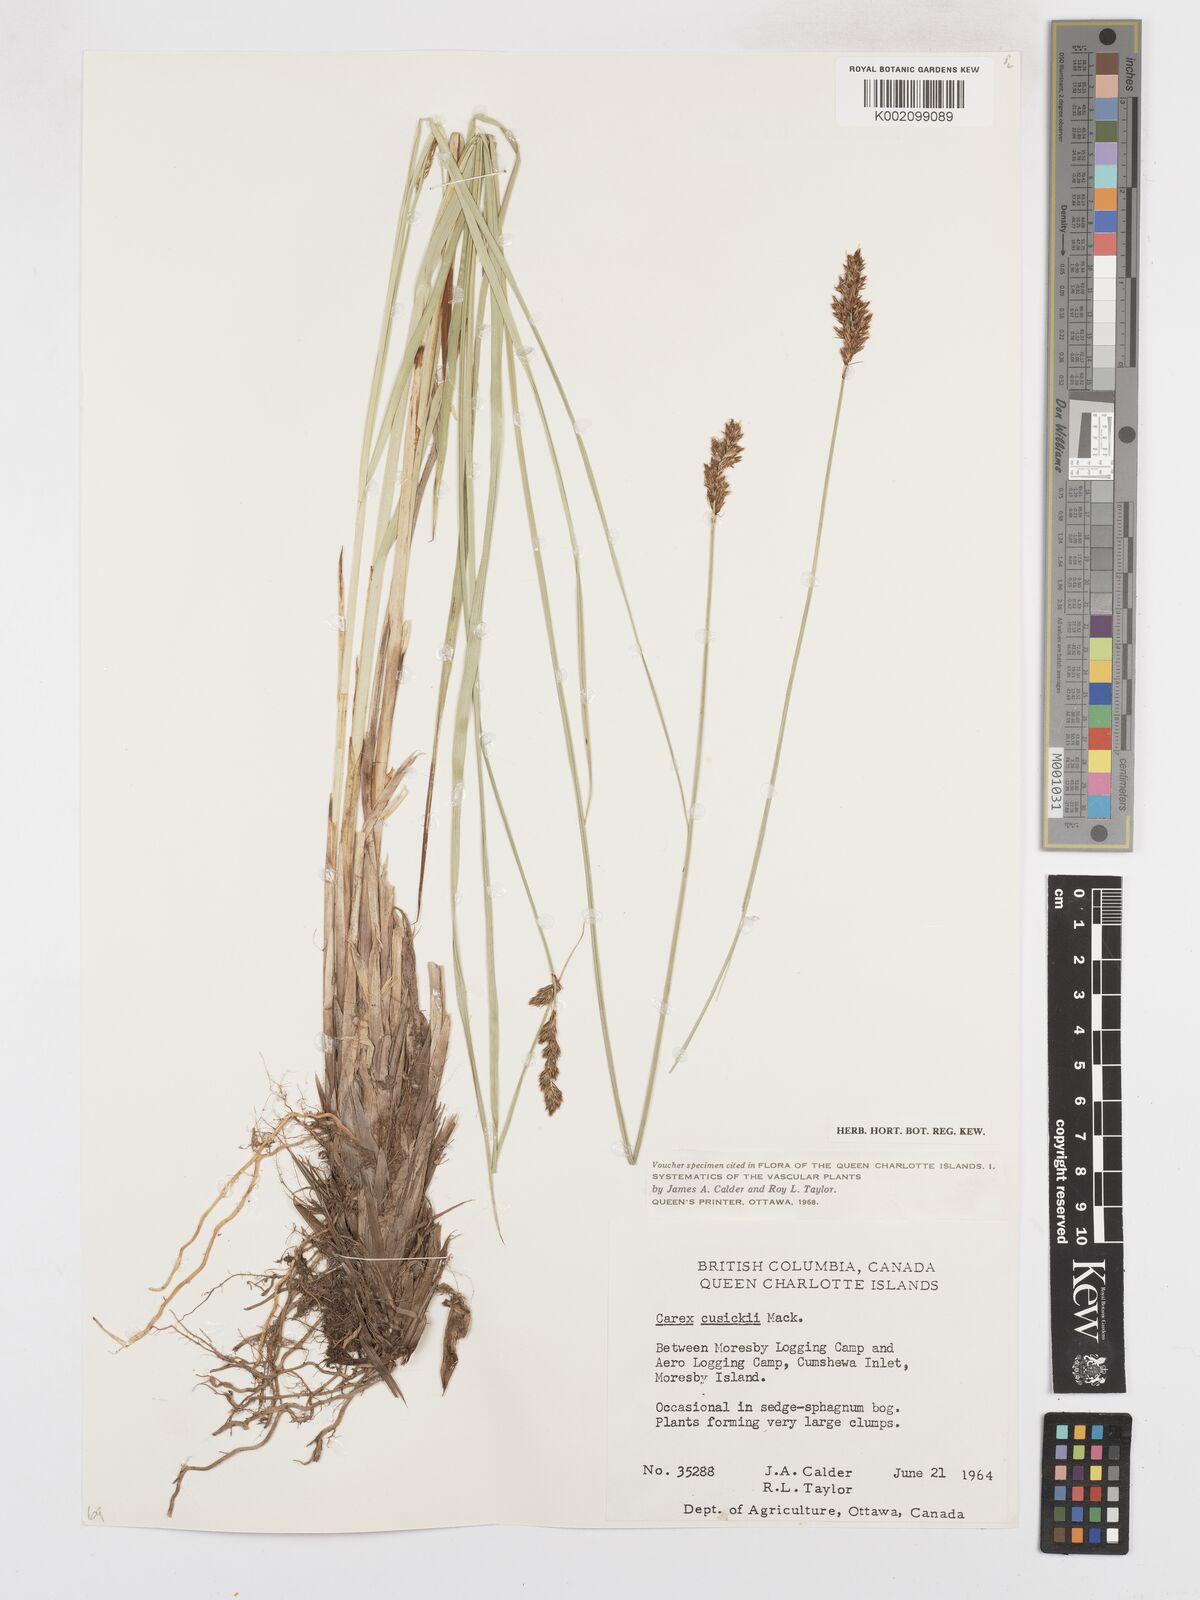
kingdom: Plantae
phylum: Tracheophyta
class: Liliopsida
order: Poales
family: Cyperaceae
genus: Carex
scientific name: Carex cusickii
